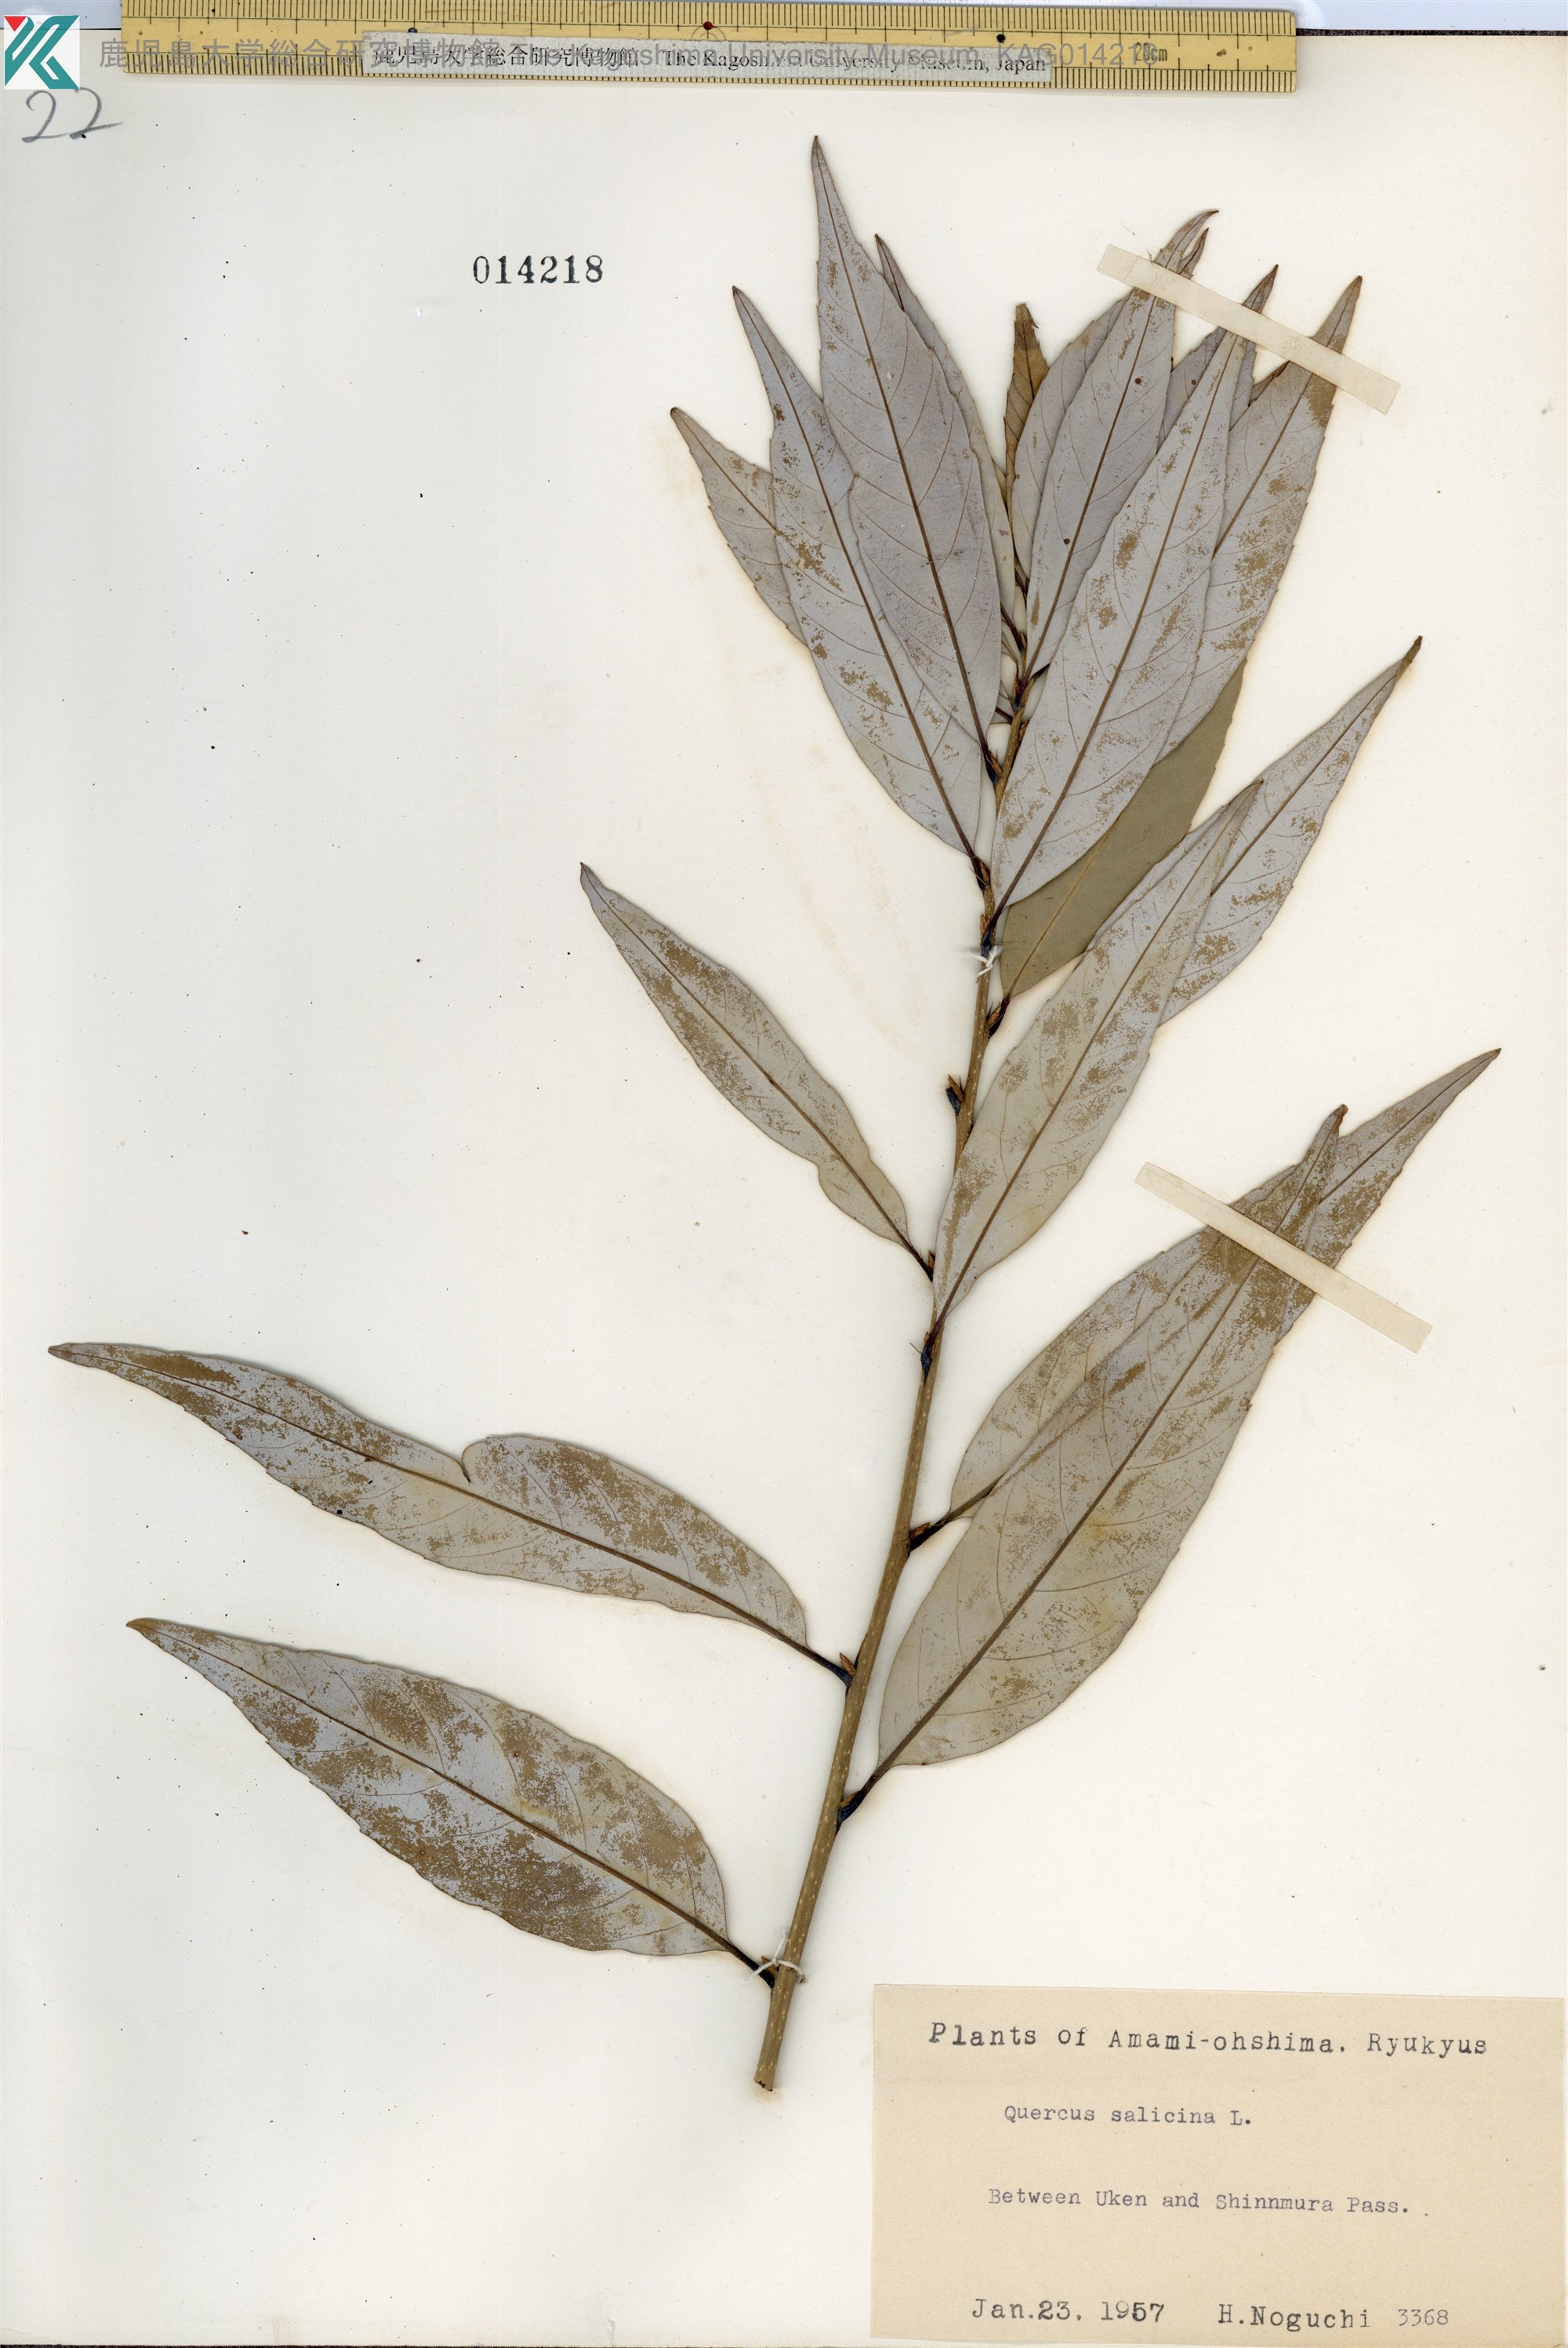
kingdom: Plantae
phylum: Tracheophyta
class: Magnoliopsida
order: Fagales
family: Fagaceae
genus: Quercus
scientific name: Quercus salicina
